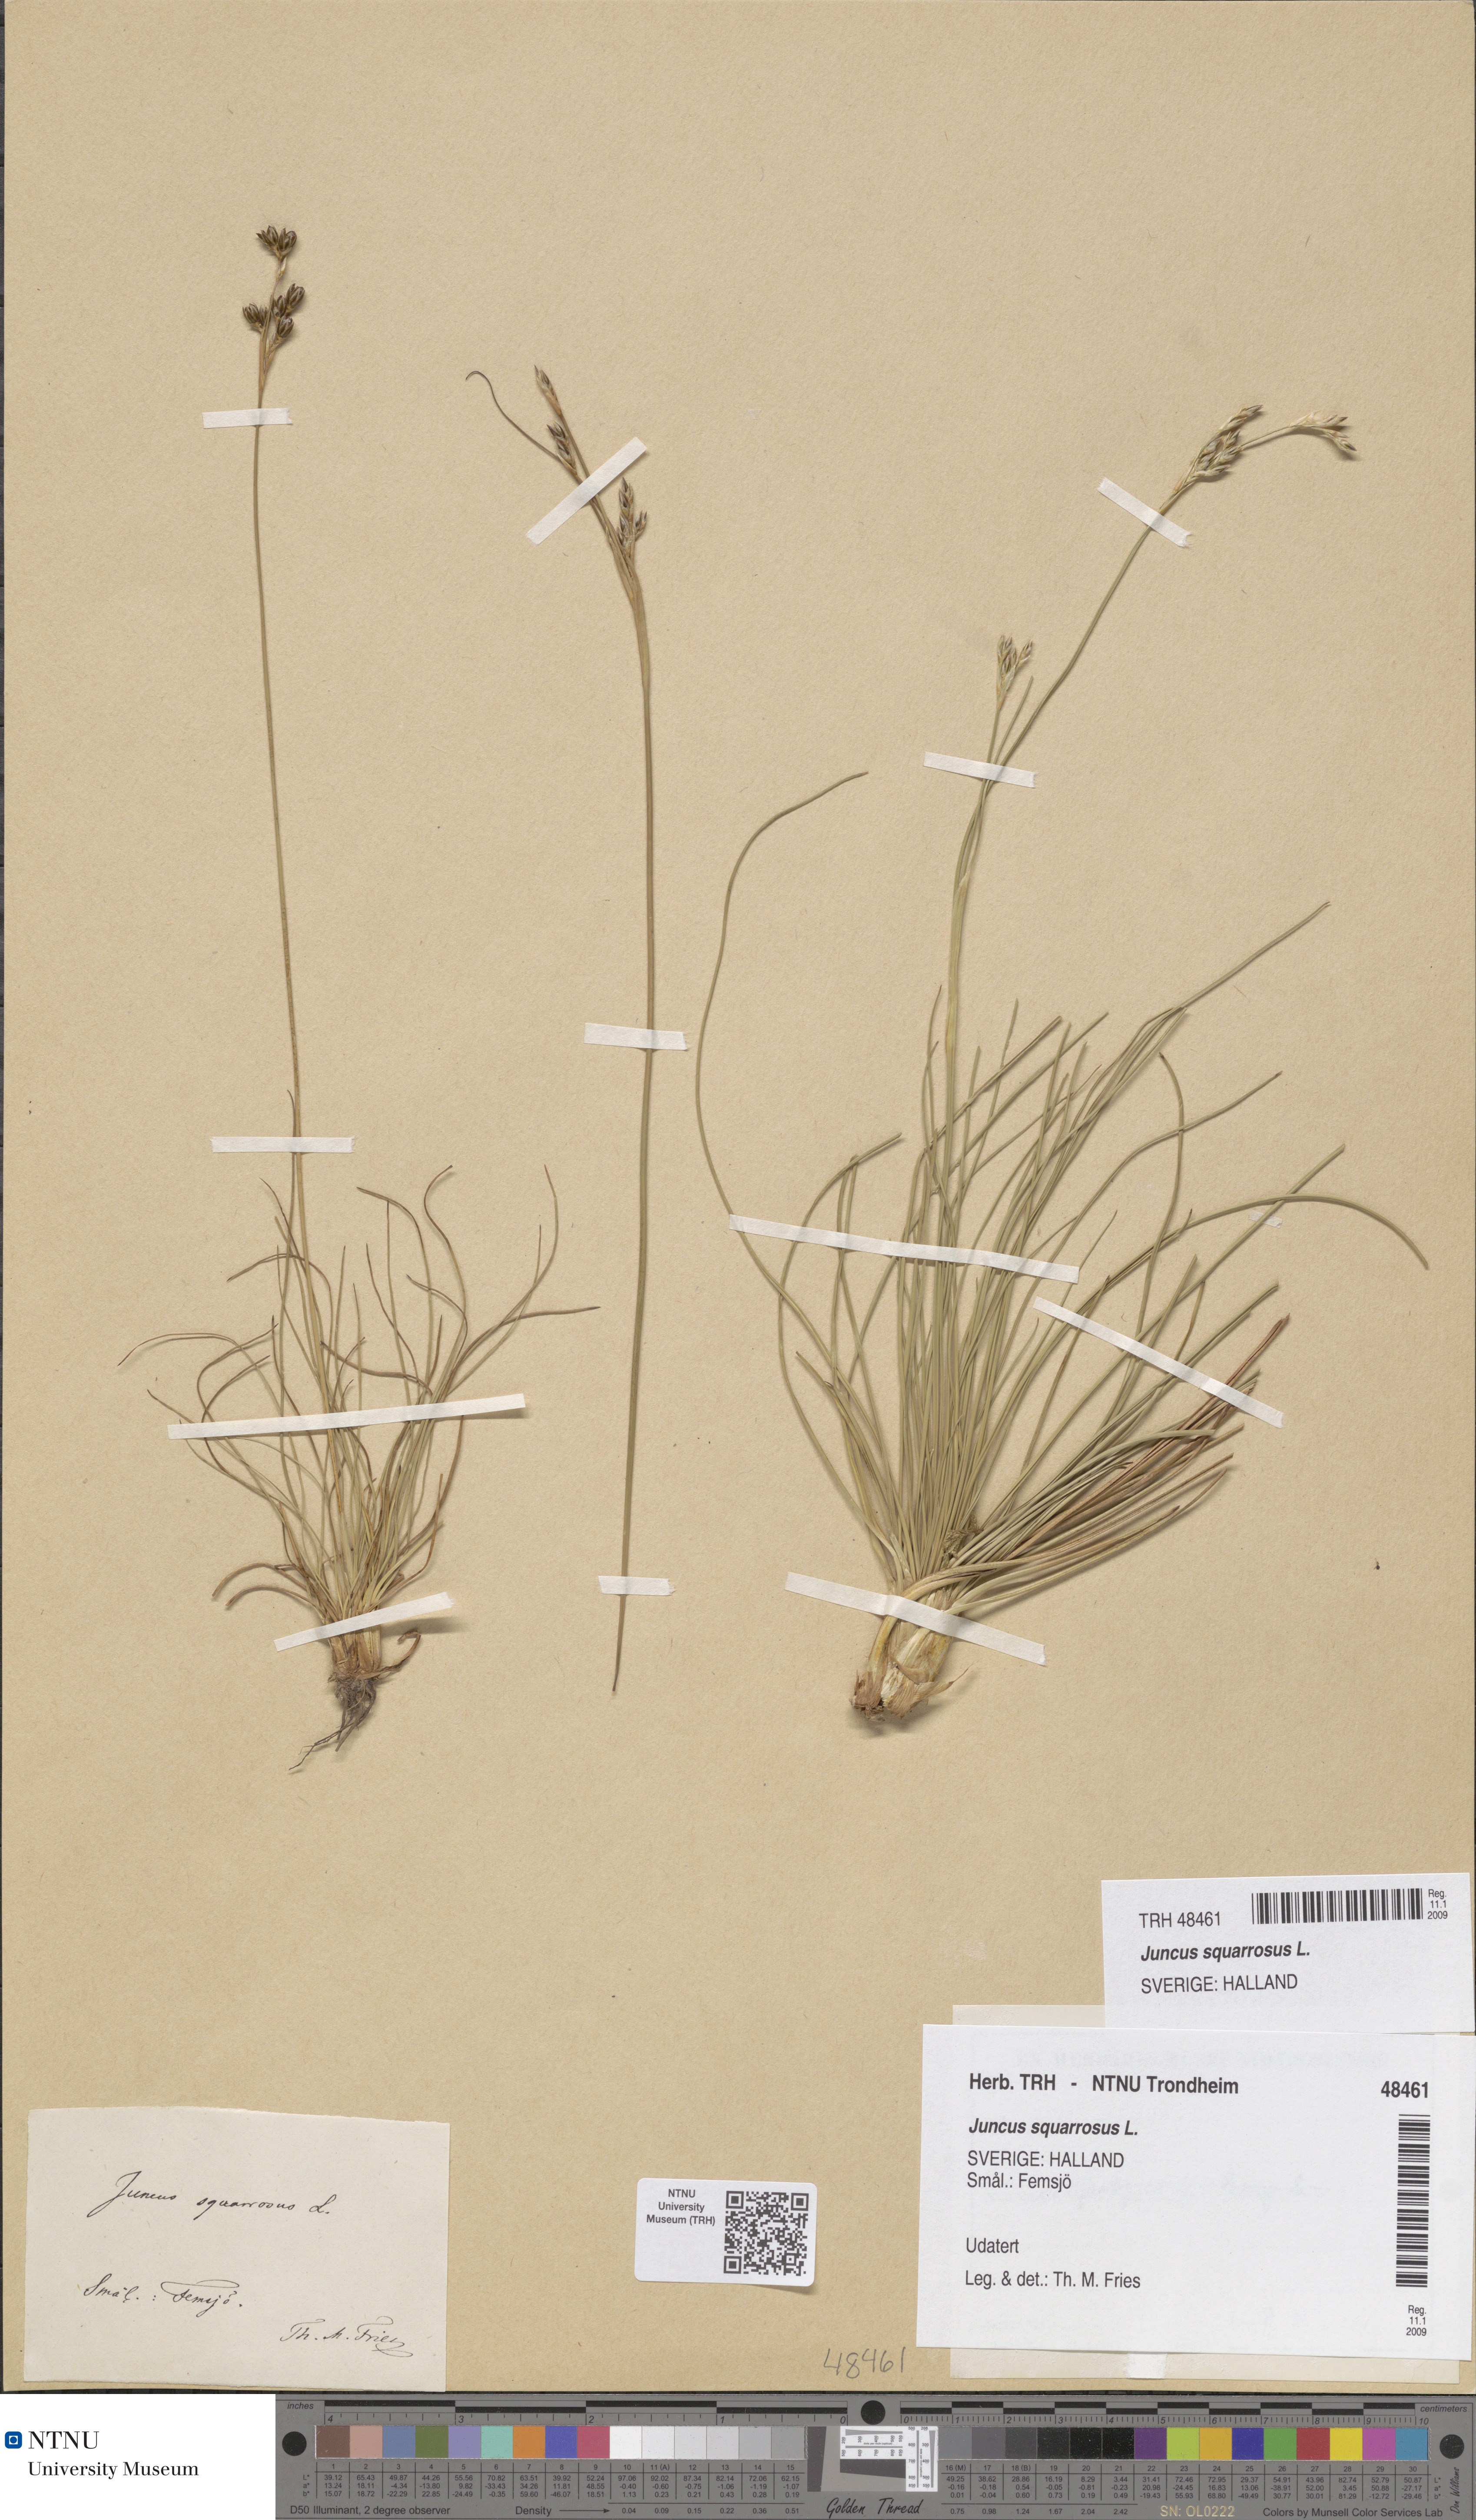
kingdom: Plantae
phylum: Tracheophyta
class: Liliopsida
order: Poales
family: Juncaceae
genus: Juncus
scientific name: Juncus squarrosus
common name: Heath rush
